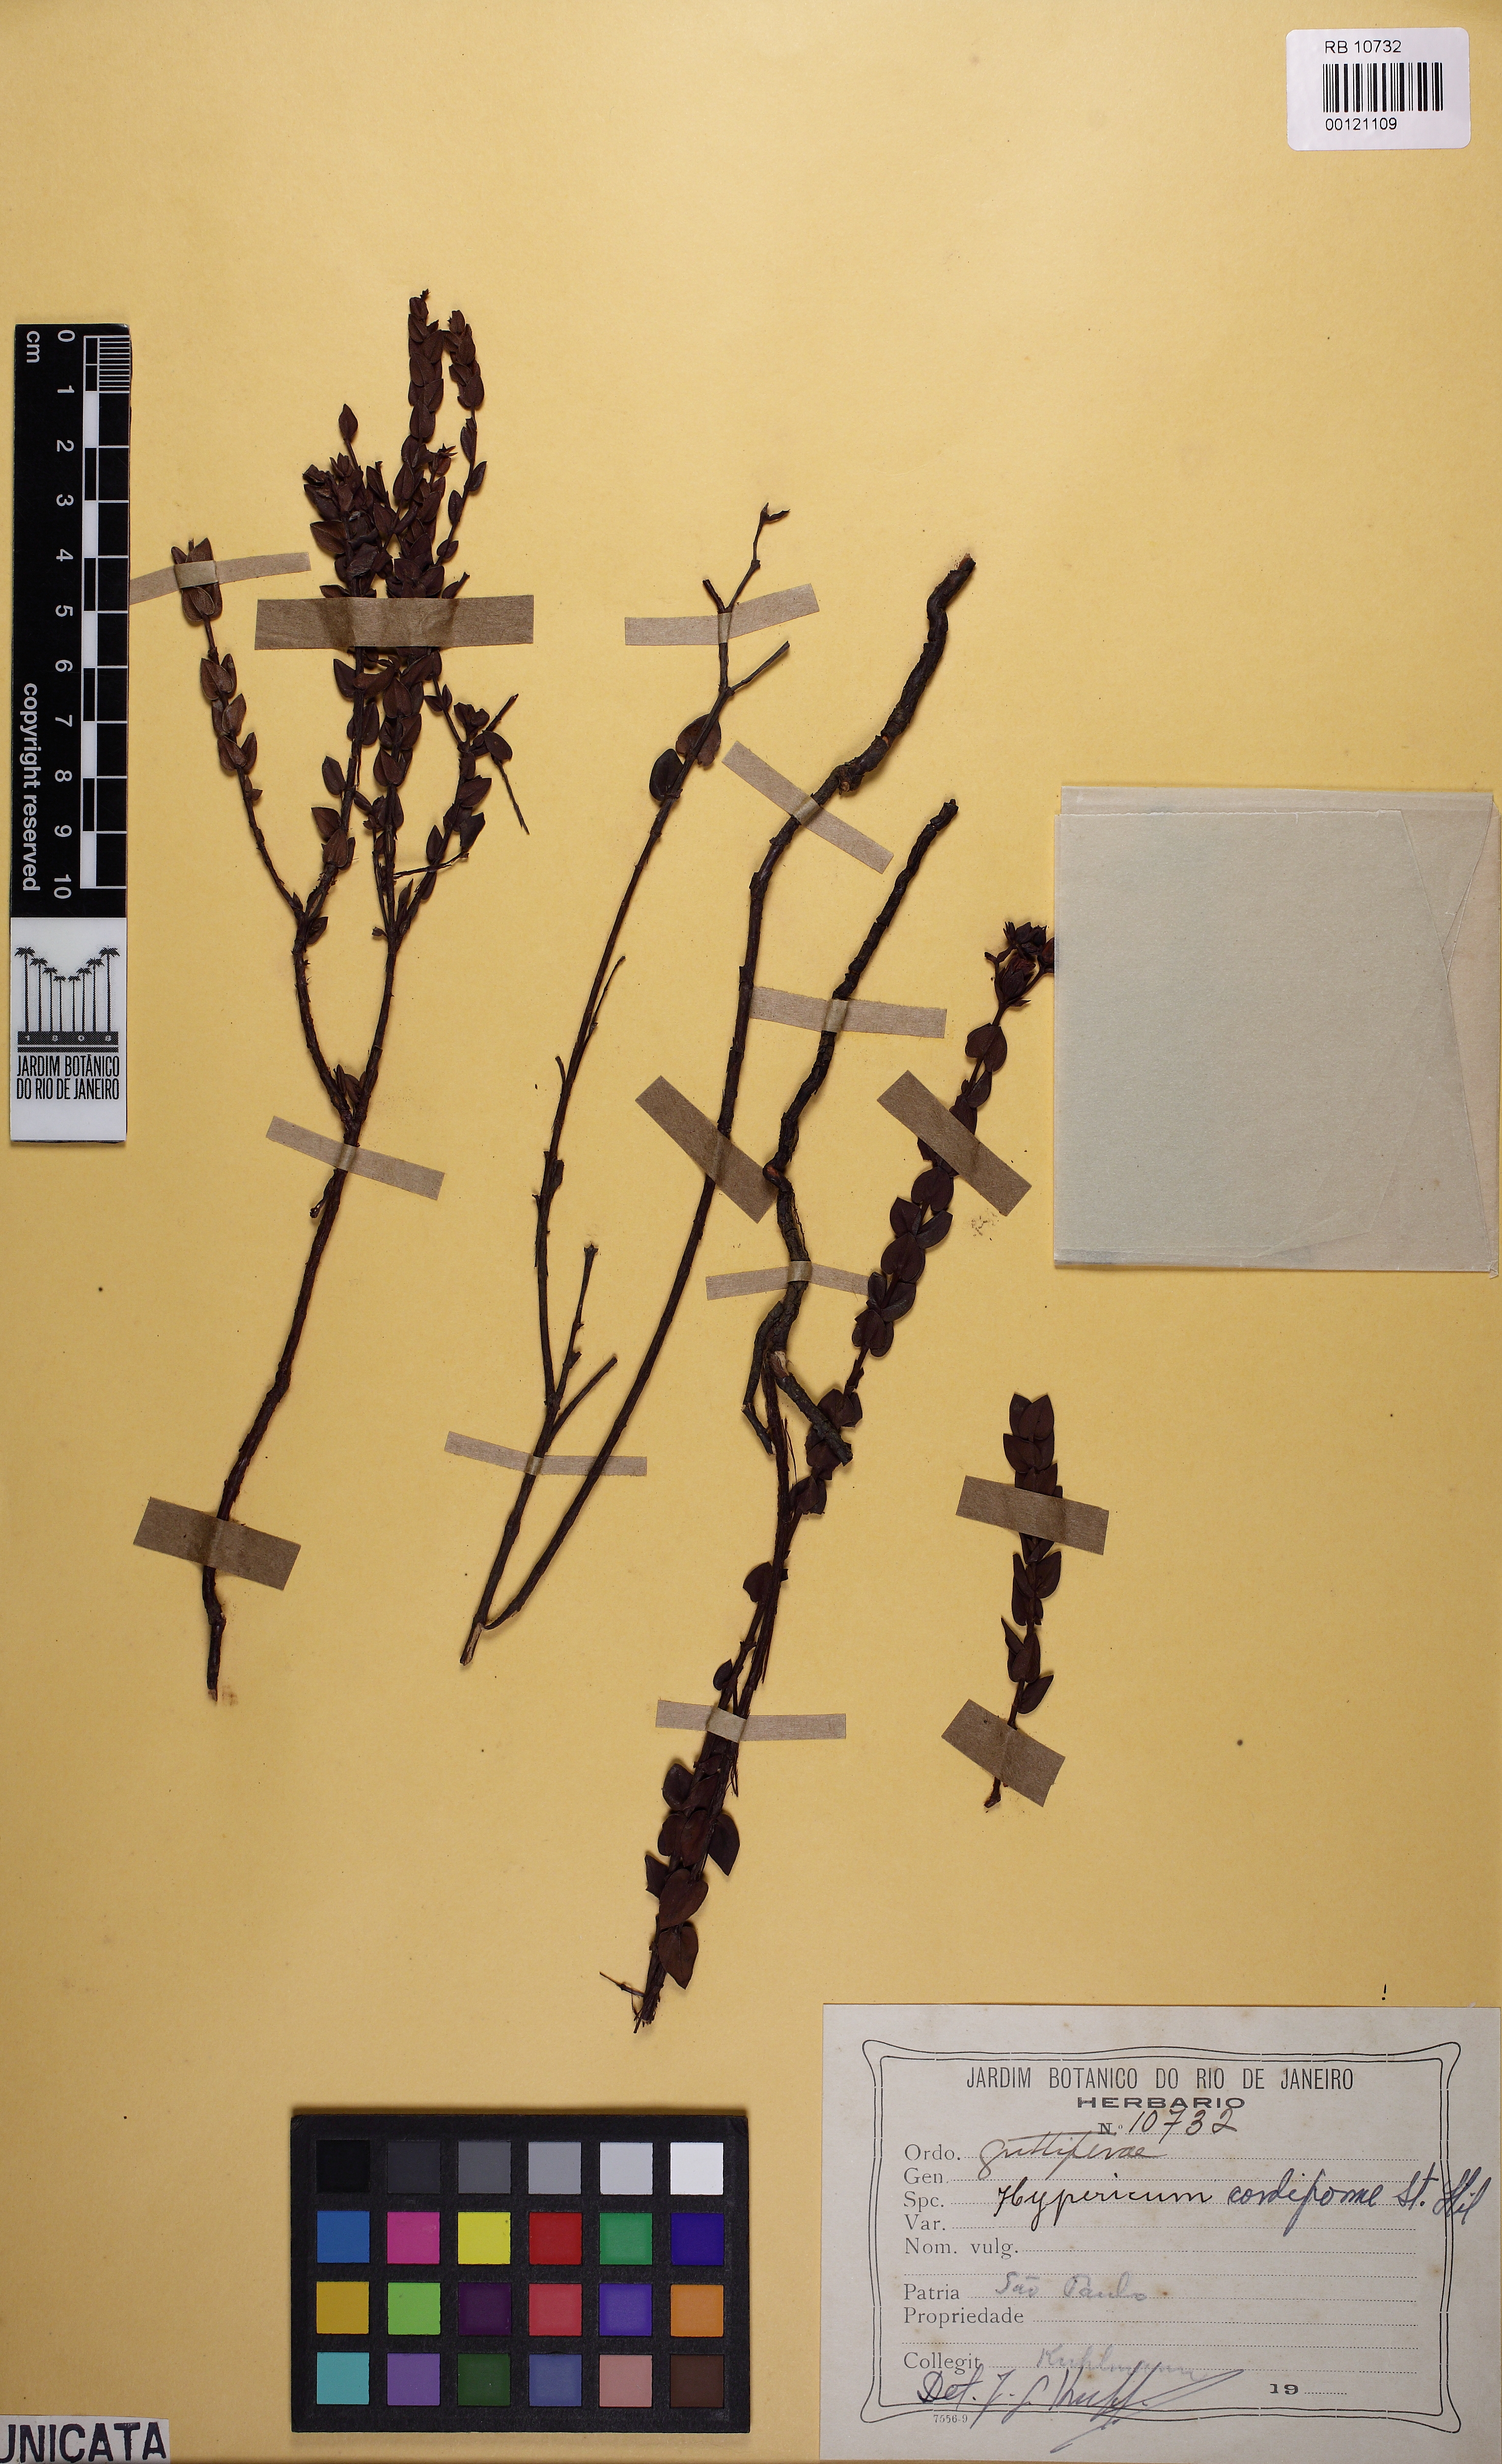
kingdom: Plantae
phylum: Tracheophyta
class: Magnoliopsida
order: Malpighiales
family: Hypericaceae
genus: Hypericum
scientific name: Hypericum cordiforme
